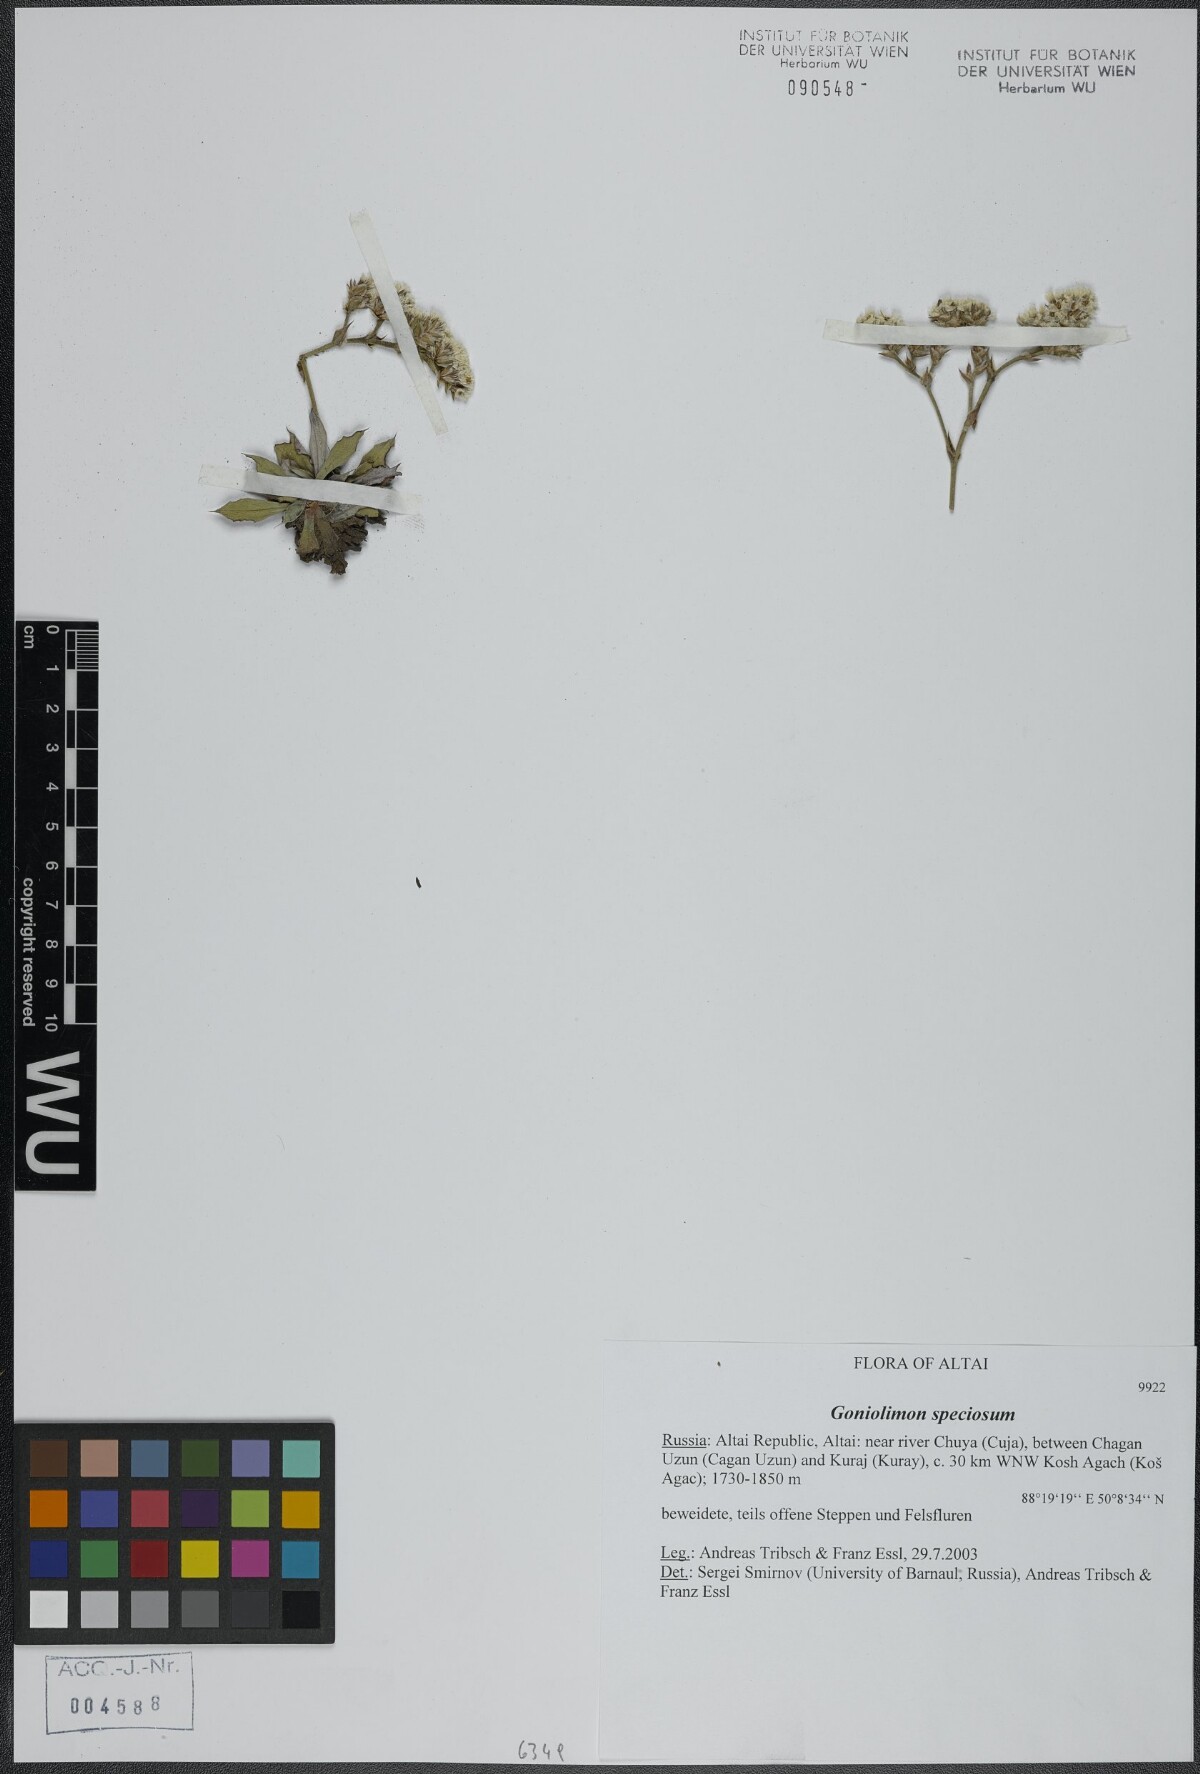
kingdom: Plantae
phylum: Tracheophyta
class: Magnoliopsida
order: Caryophyllales
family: Plumbaginaceae
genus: Goniolimon
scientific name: Goniolimon speciosum
